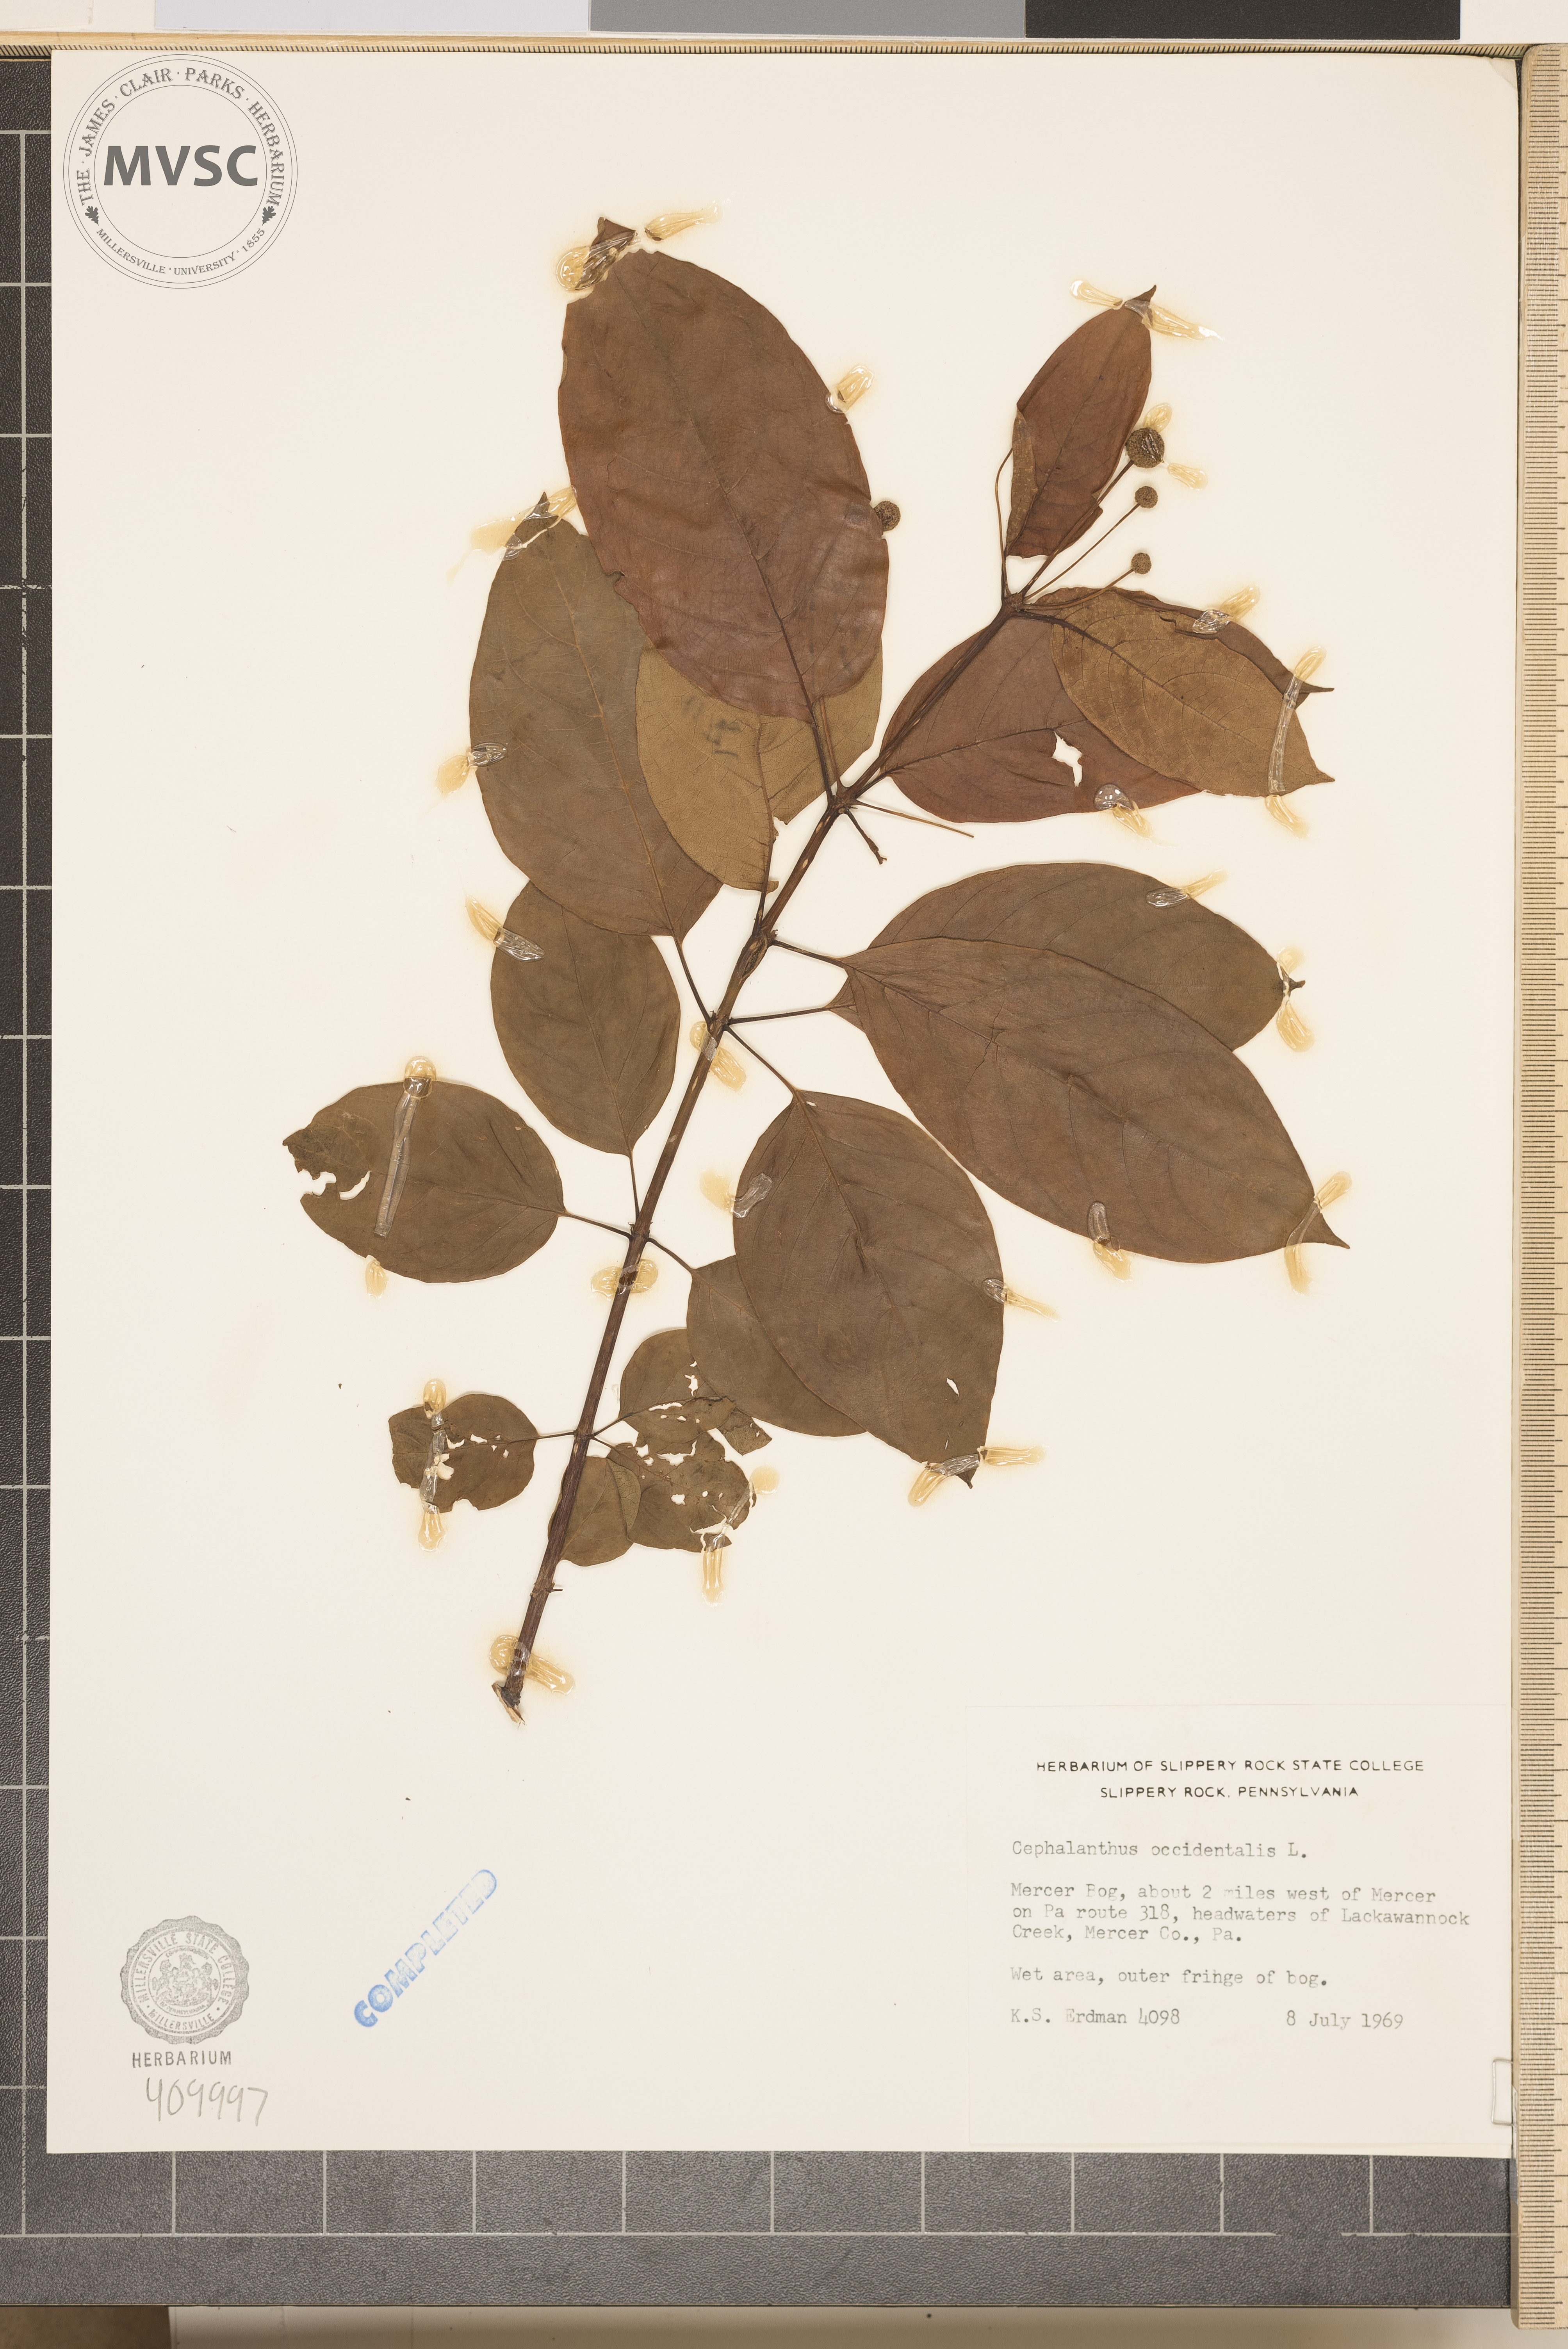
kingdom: Plantae
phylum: Tracheophyta
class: Magnoliopsida
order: Gentianales
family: Rubiaceae
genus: Cephalanthus
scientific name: Cephalanthus occidentalis
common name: Button-willow
